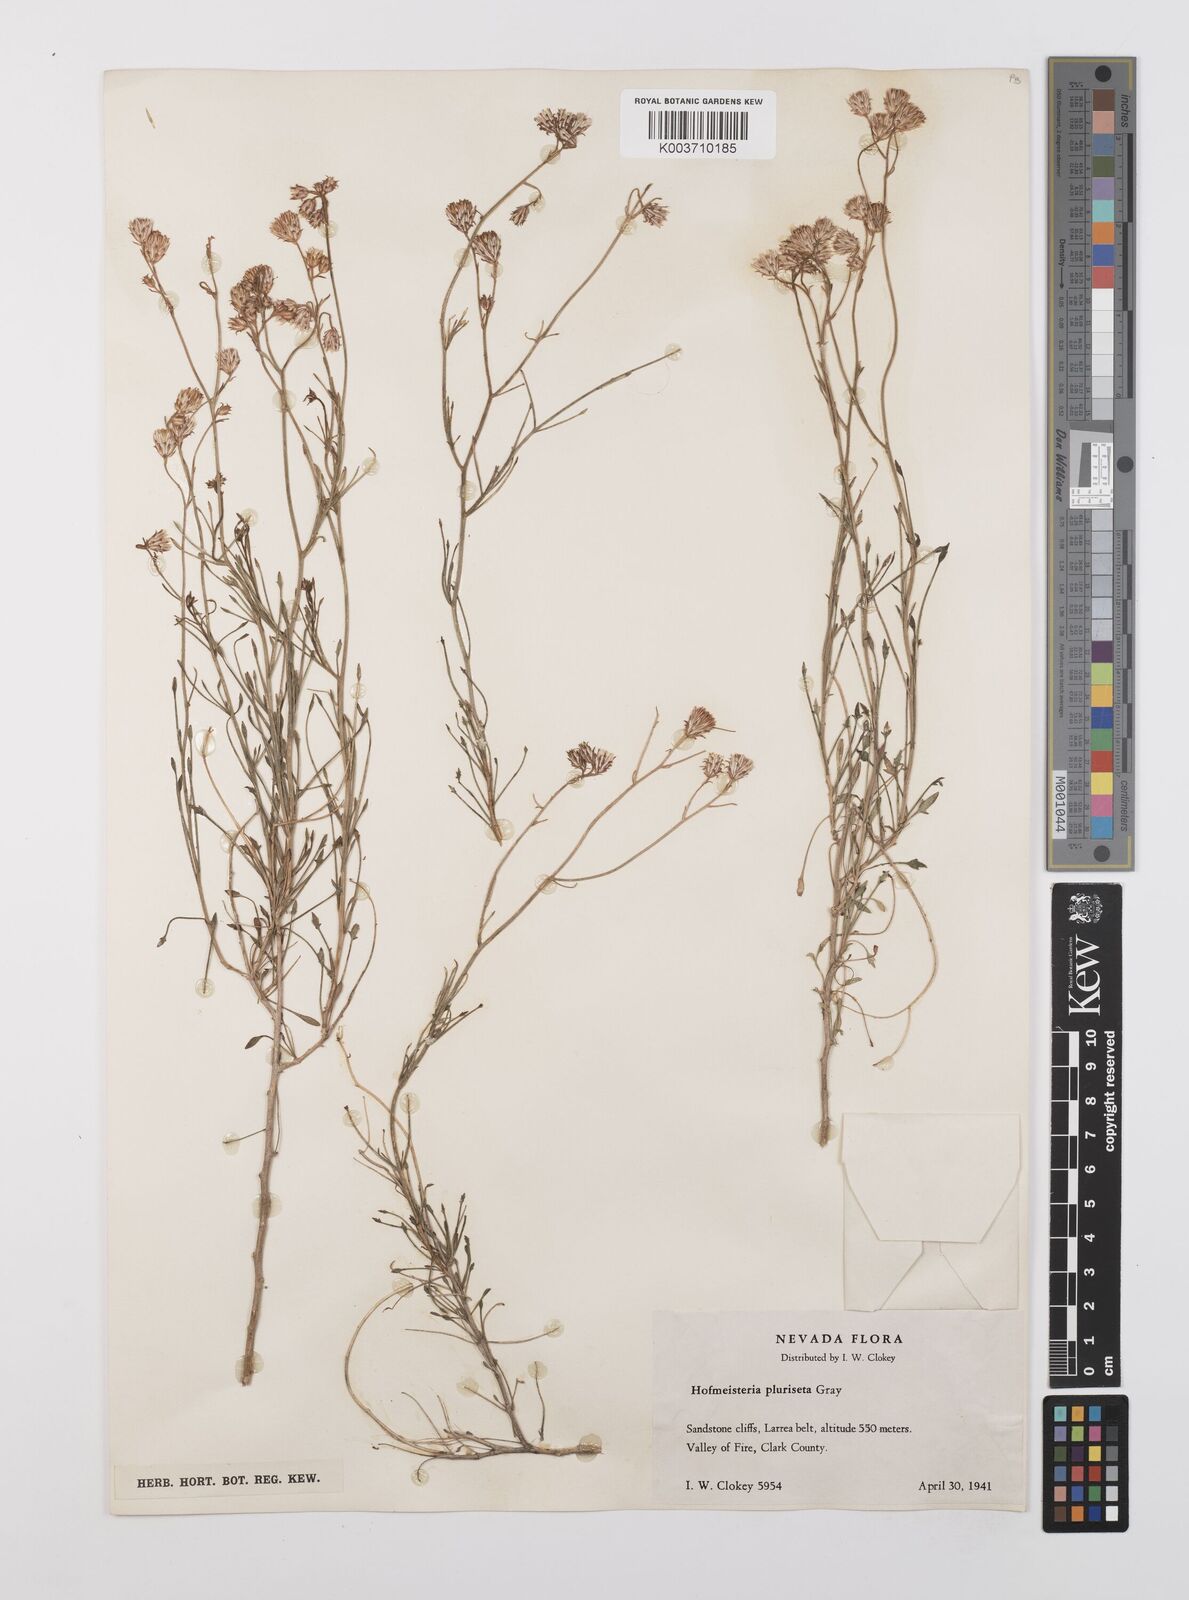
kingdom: Plantae
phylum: Tracheophyta
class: Magnoliopsida
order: Asterales
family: Asteraceae
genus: Pleurocoronis
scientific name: Pleurocoronis pluriseta
